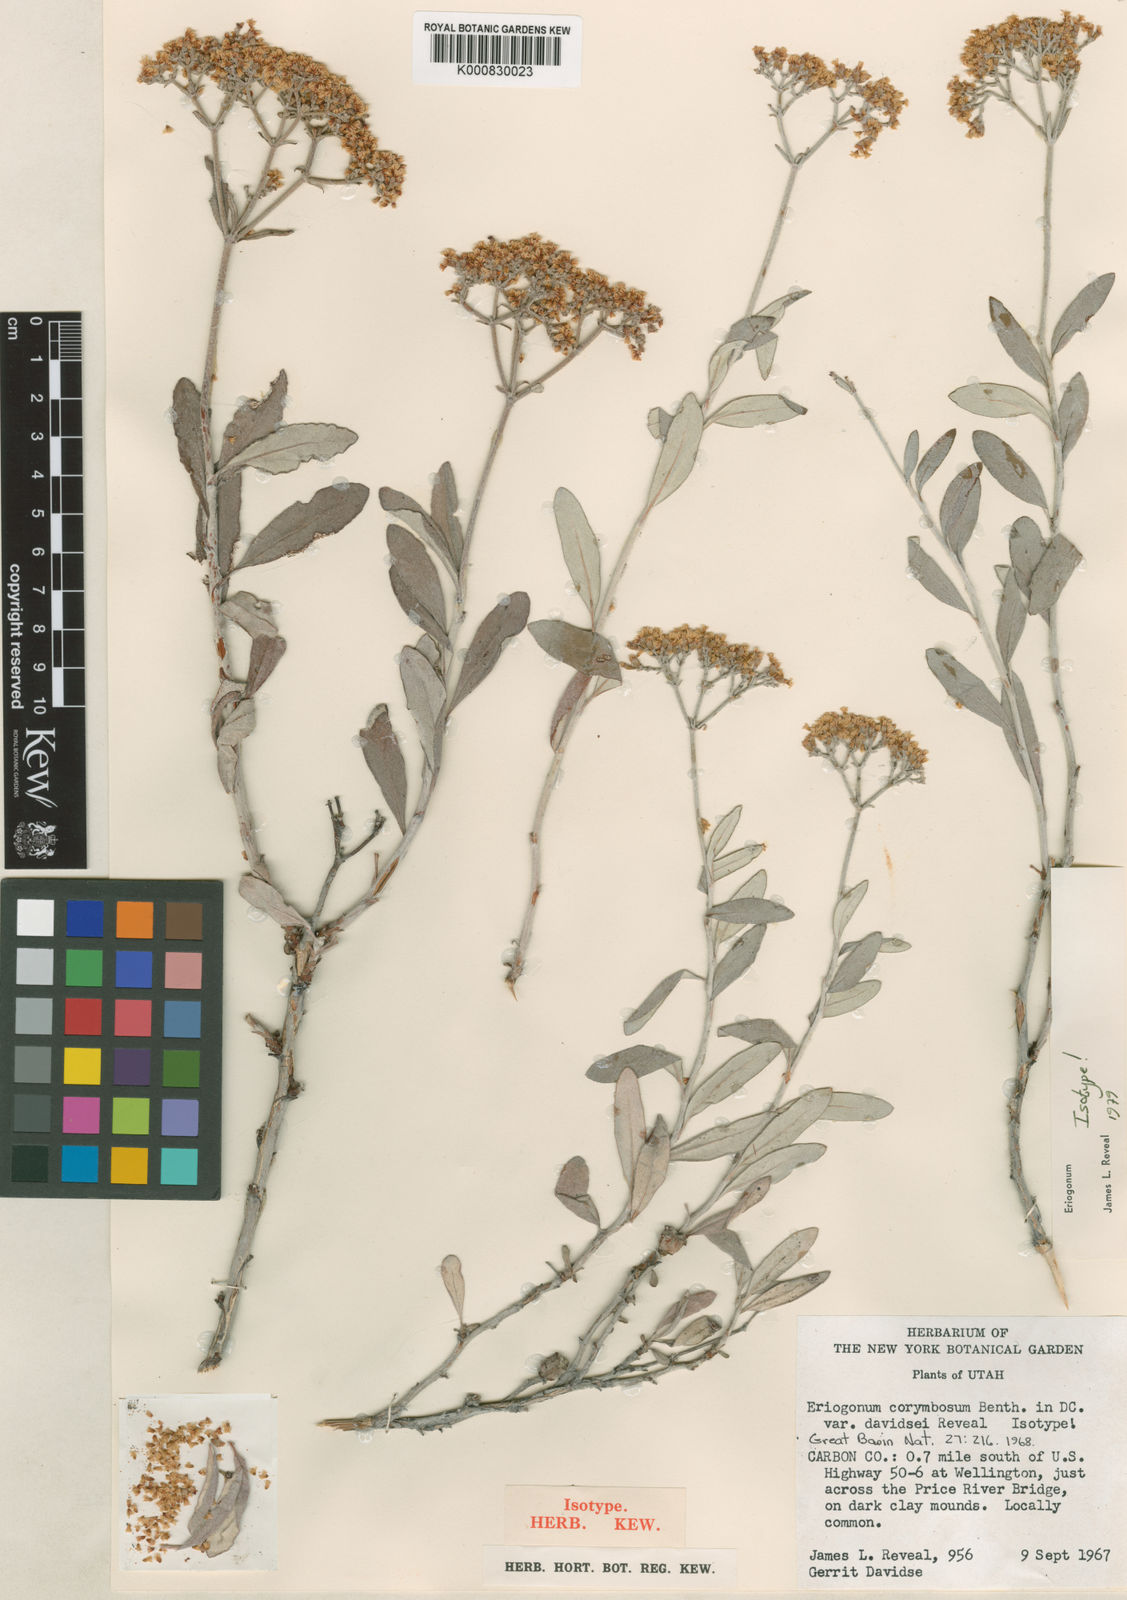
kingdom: Plantae
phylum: Tracheophyta
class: Magnoliopsida
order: Caryophyllales
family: Polygonaceae
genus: Eriogonum
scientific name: Eriogonum lancifolium
